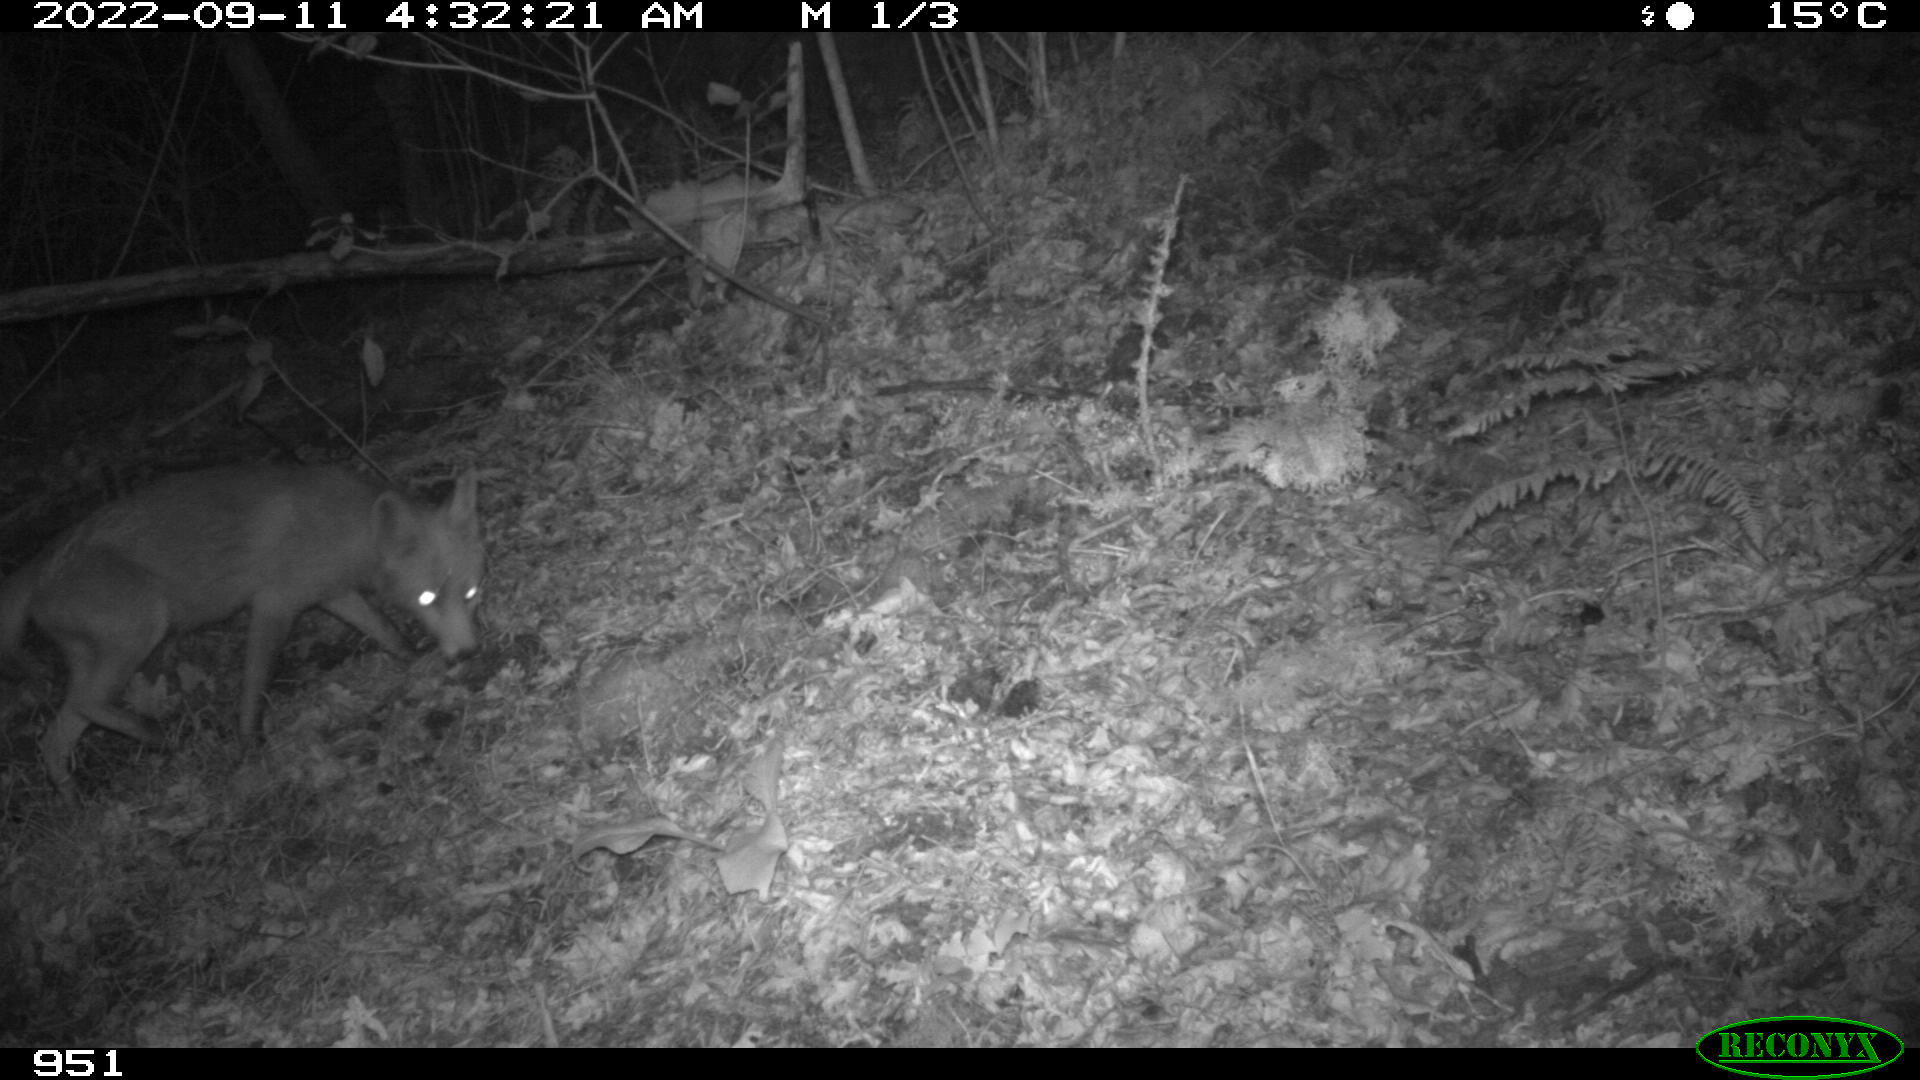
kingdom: Animalia
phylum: Chordata
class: Mammalia
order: Carnivora
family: Canidae
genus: Vulpes
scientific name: Vulpes vulpes
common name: Red fox
